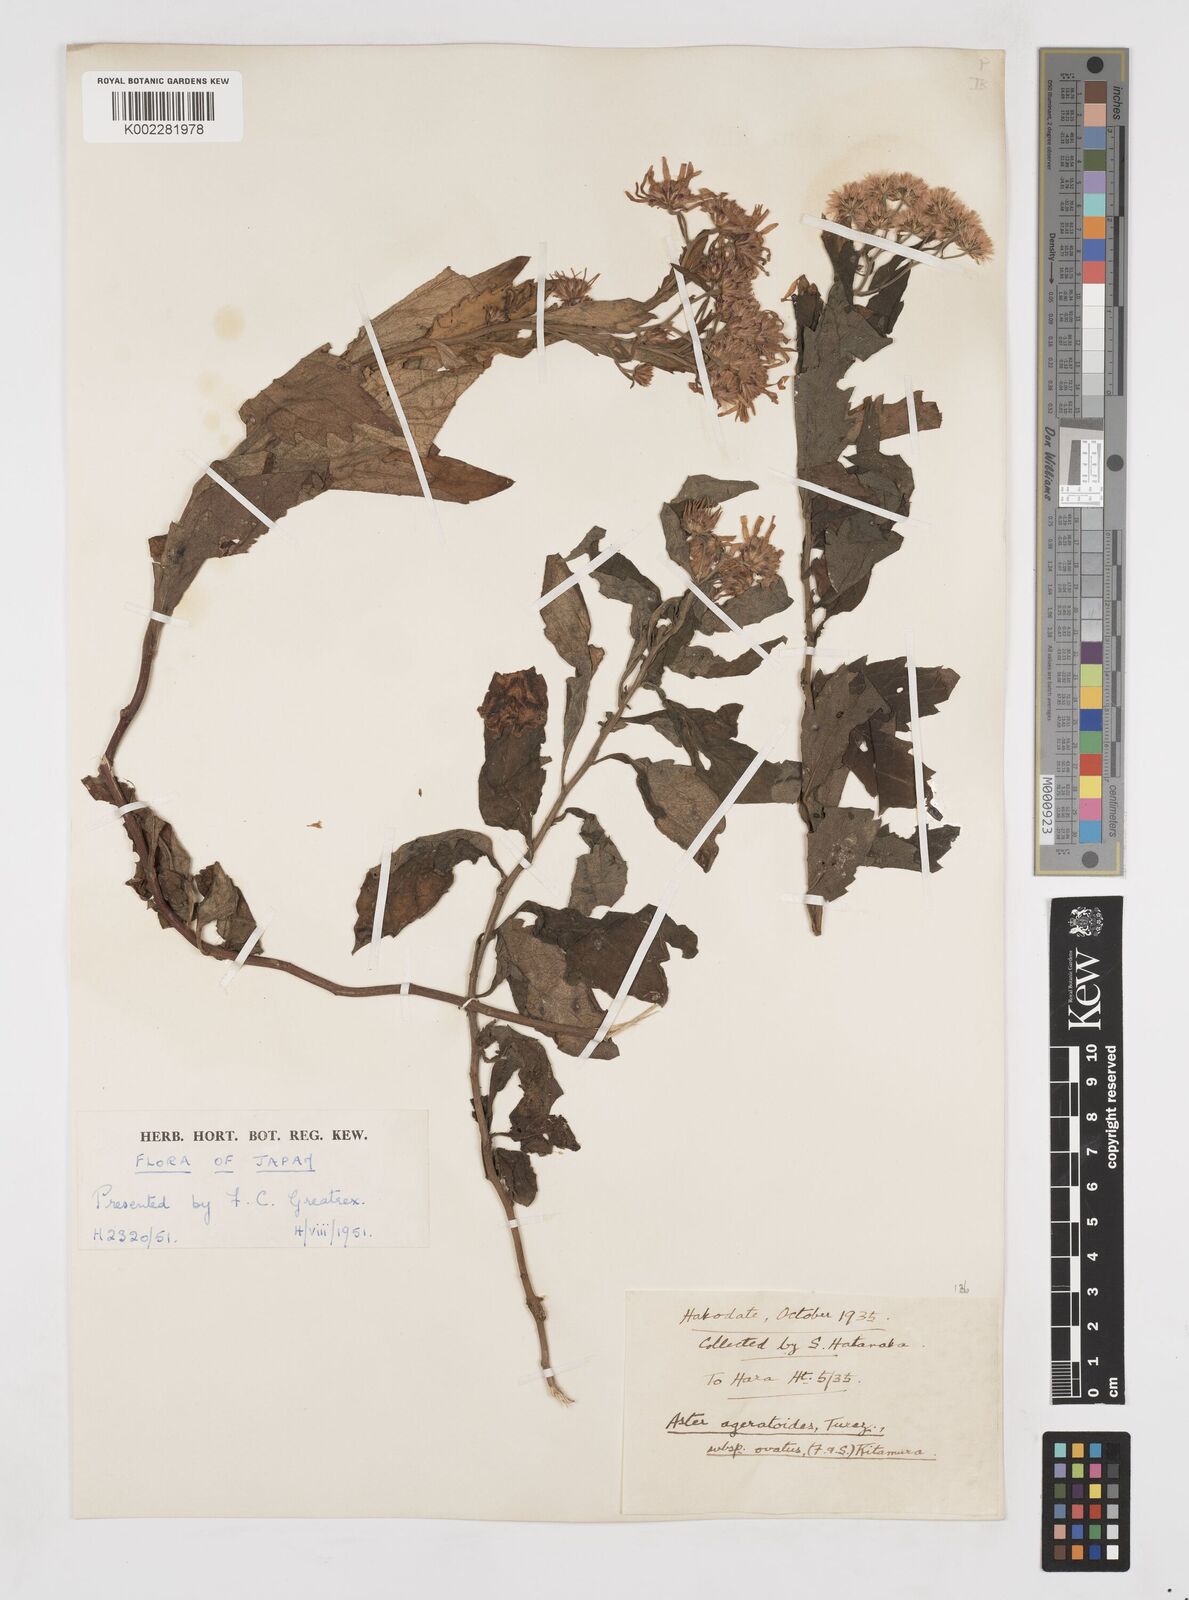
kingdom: Plantae
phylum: Tracheophyta
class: Magnoliopsida
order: Asterales
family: Asteraceae
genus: Aster
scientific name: Aster trinervius
